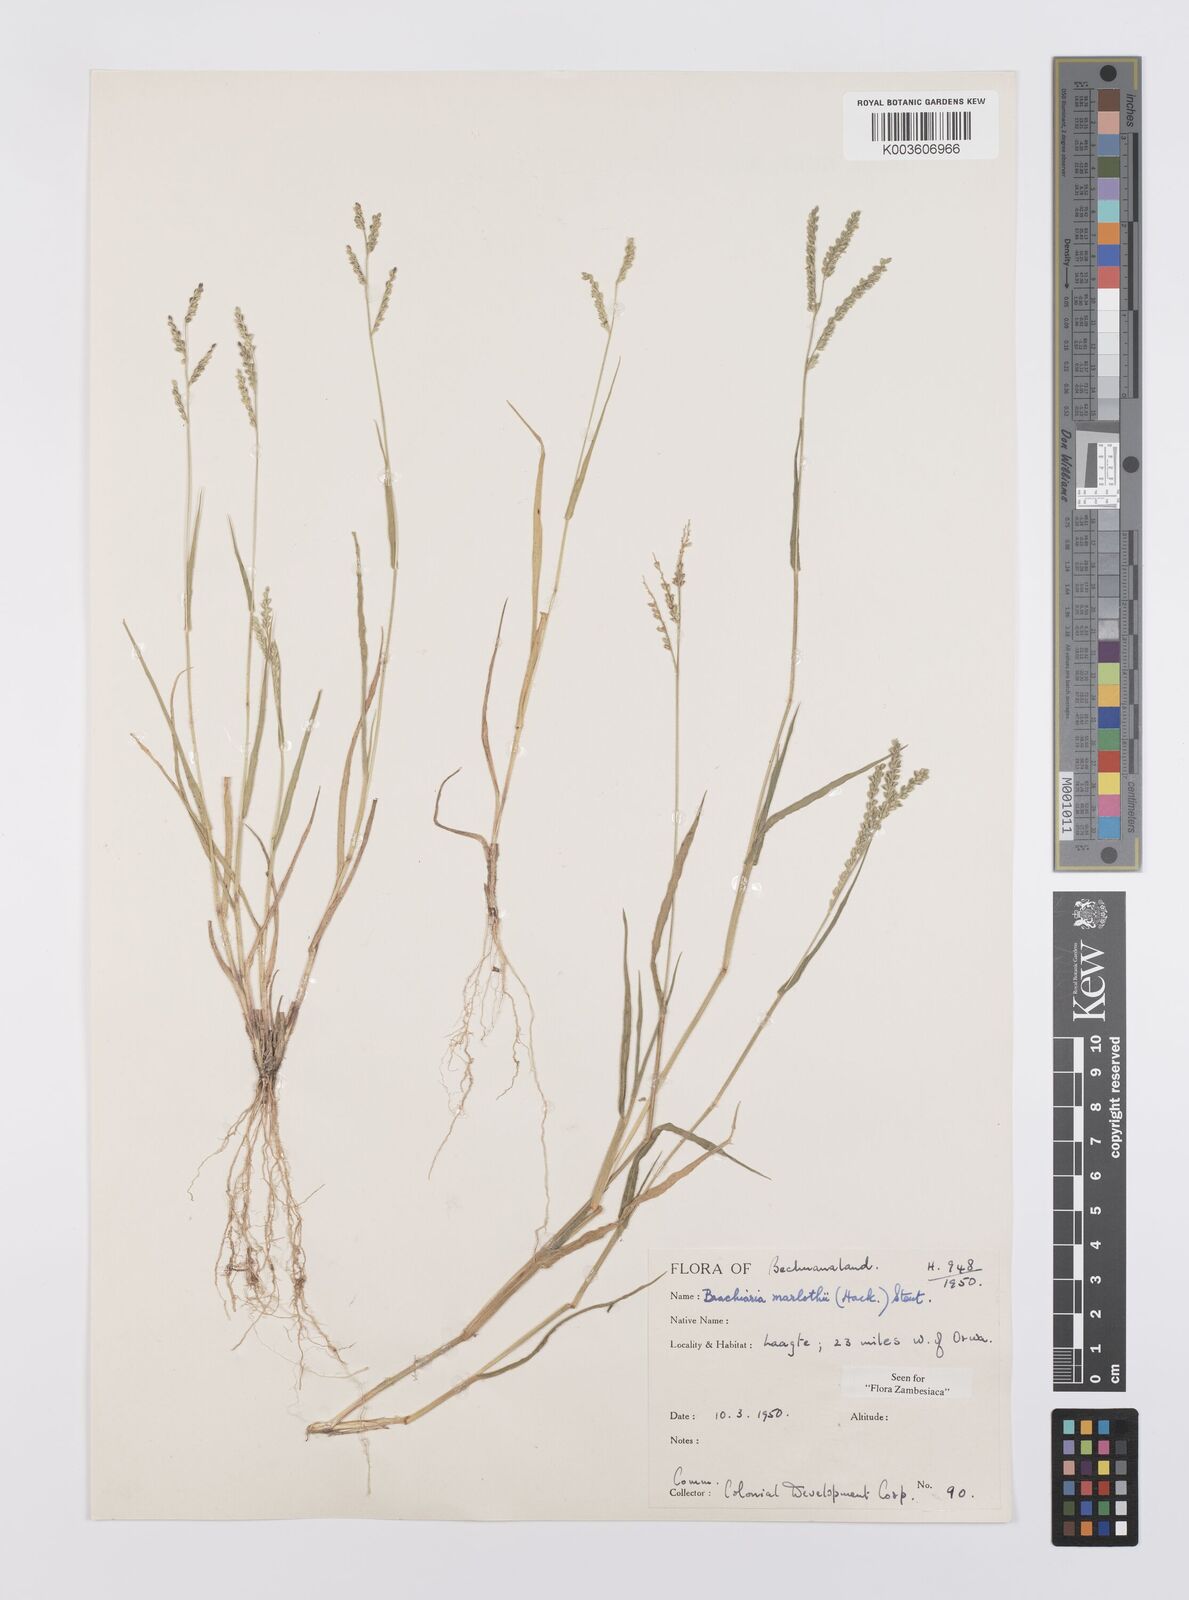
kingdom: Plantae
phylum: Tracheophyta
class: Liliopsida
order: Poales
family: Poaceae
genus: Urochloa
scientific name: Urochloa Brachiaria marlothii
